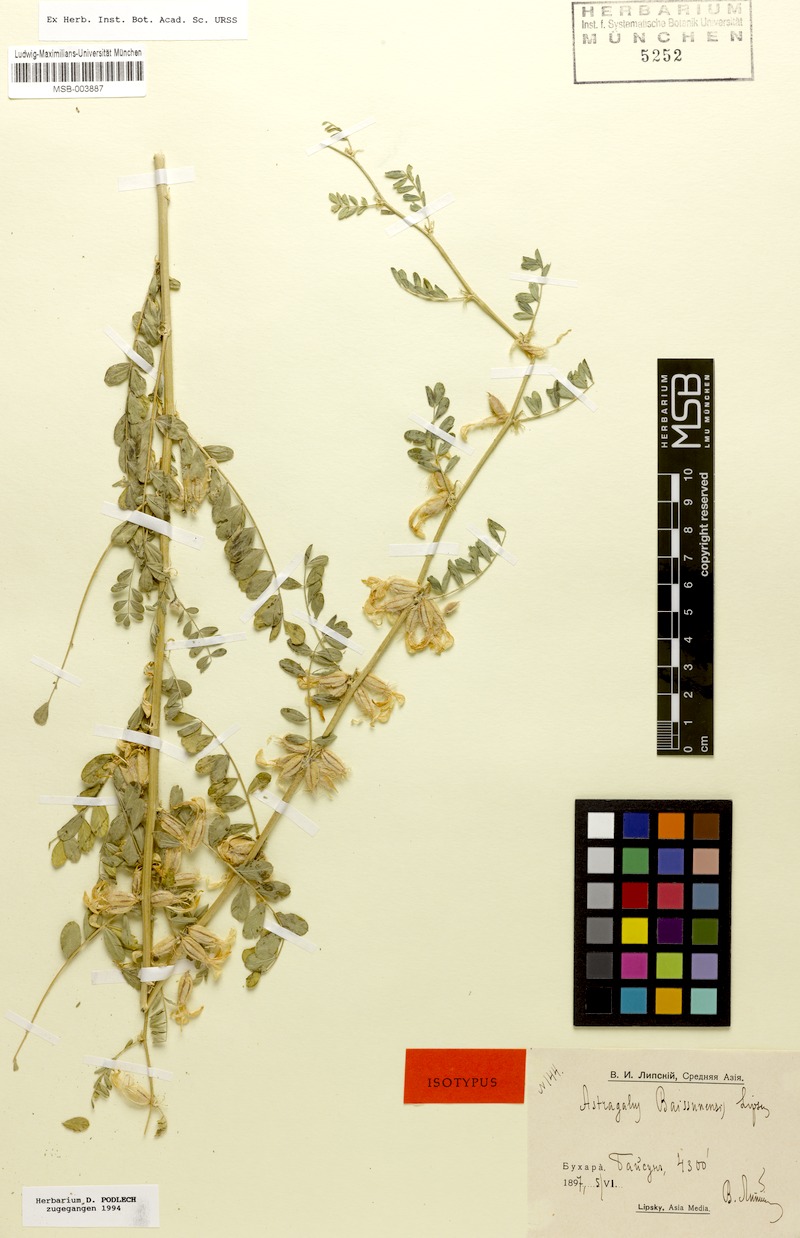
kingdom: Plantae
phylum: Tracheophyta
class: Magnoliopsida
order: Fabales
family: Fabaceae
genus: Astragalus
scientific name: Astragalus baissunensis
